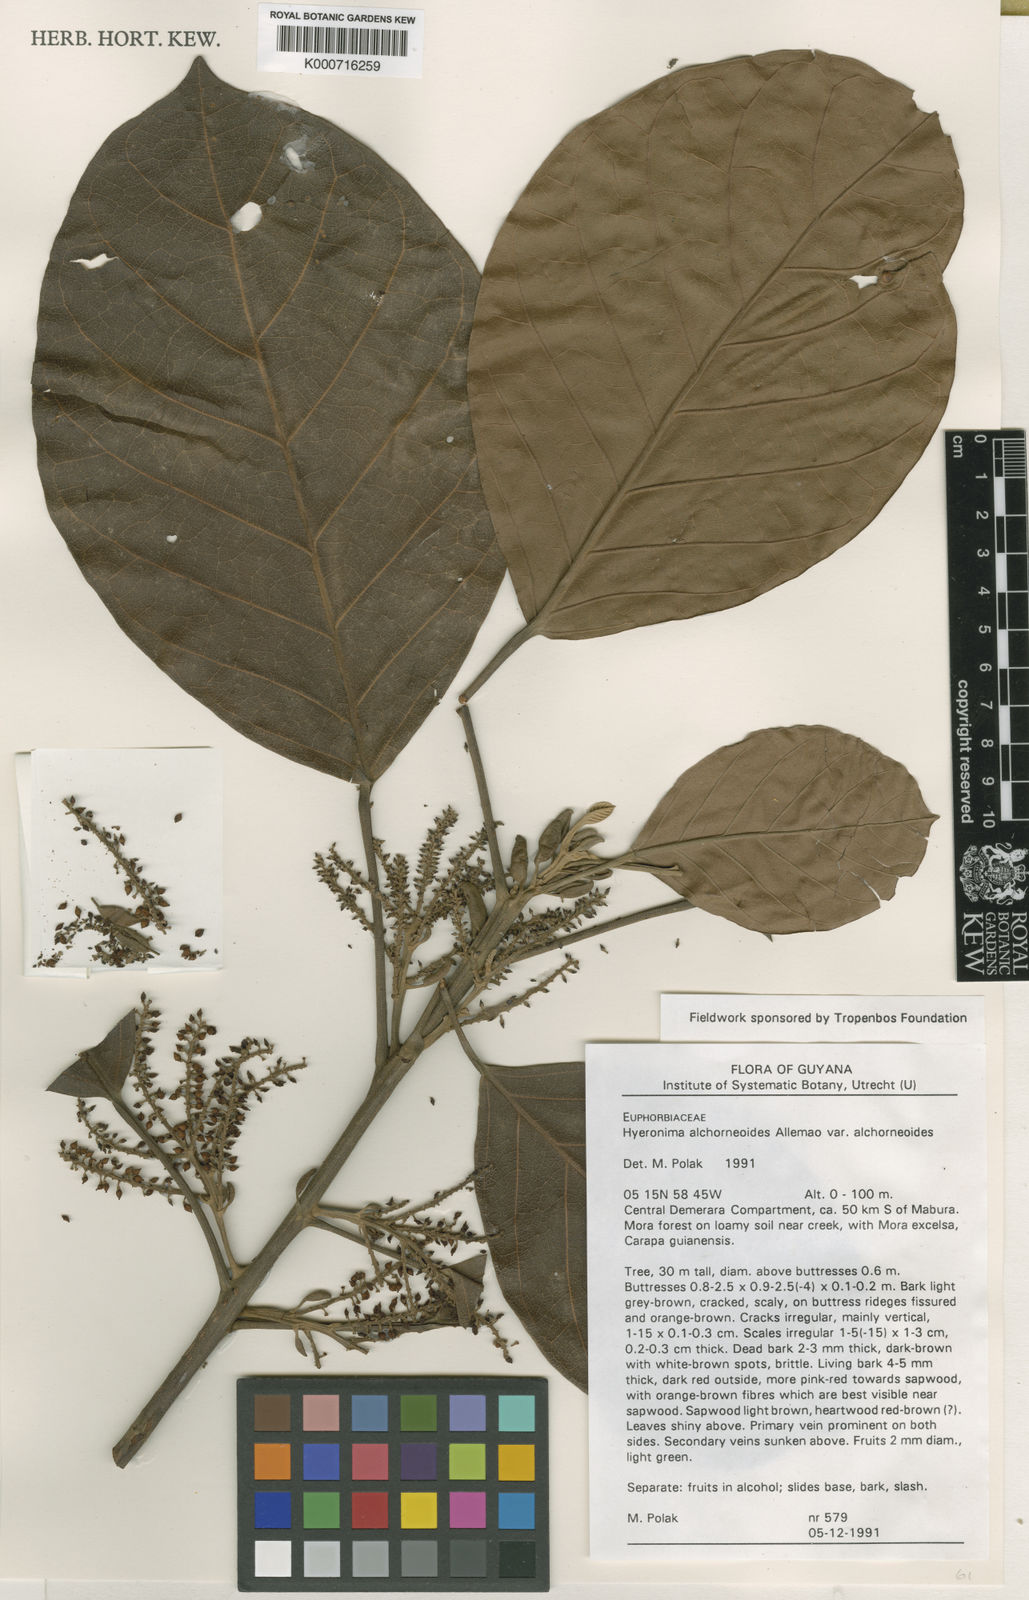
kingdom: Plantae
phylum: Tracheophyta
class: Magnoliopsida
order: Malpighiales
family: Phyllanthaceae
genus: Hieronyma
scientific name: Hieronyma
